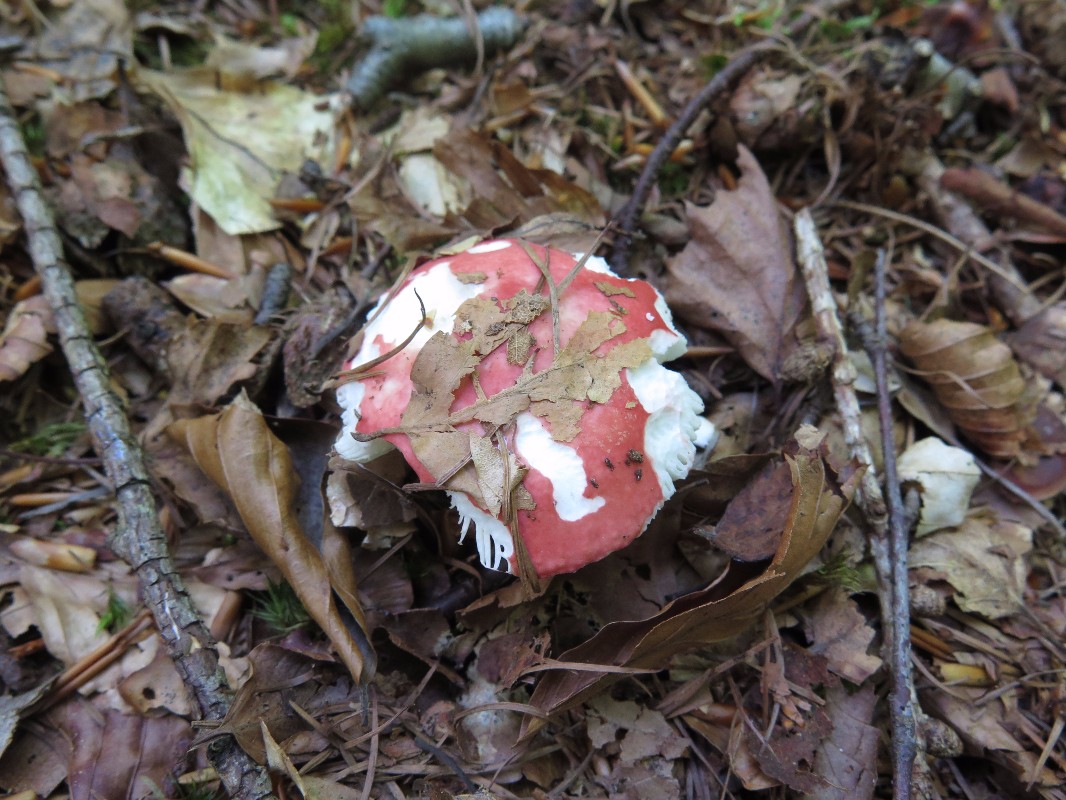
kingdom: Fungi
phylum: Basidiomycota
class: Agaricomycetes
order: Russulales
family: Russulaceae
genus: Russula
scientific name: Russula emetica
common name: stor gift-skørhat
